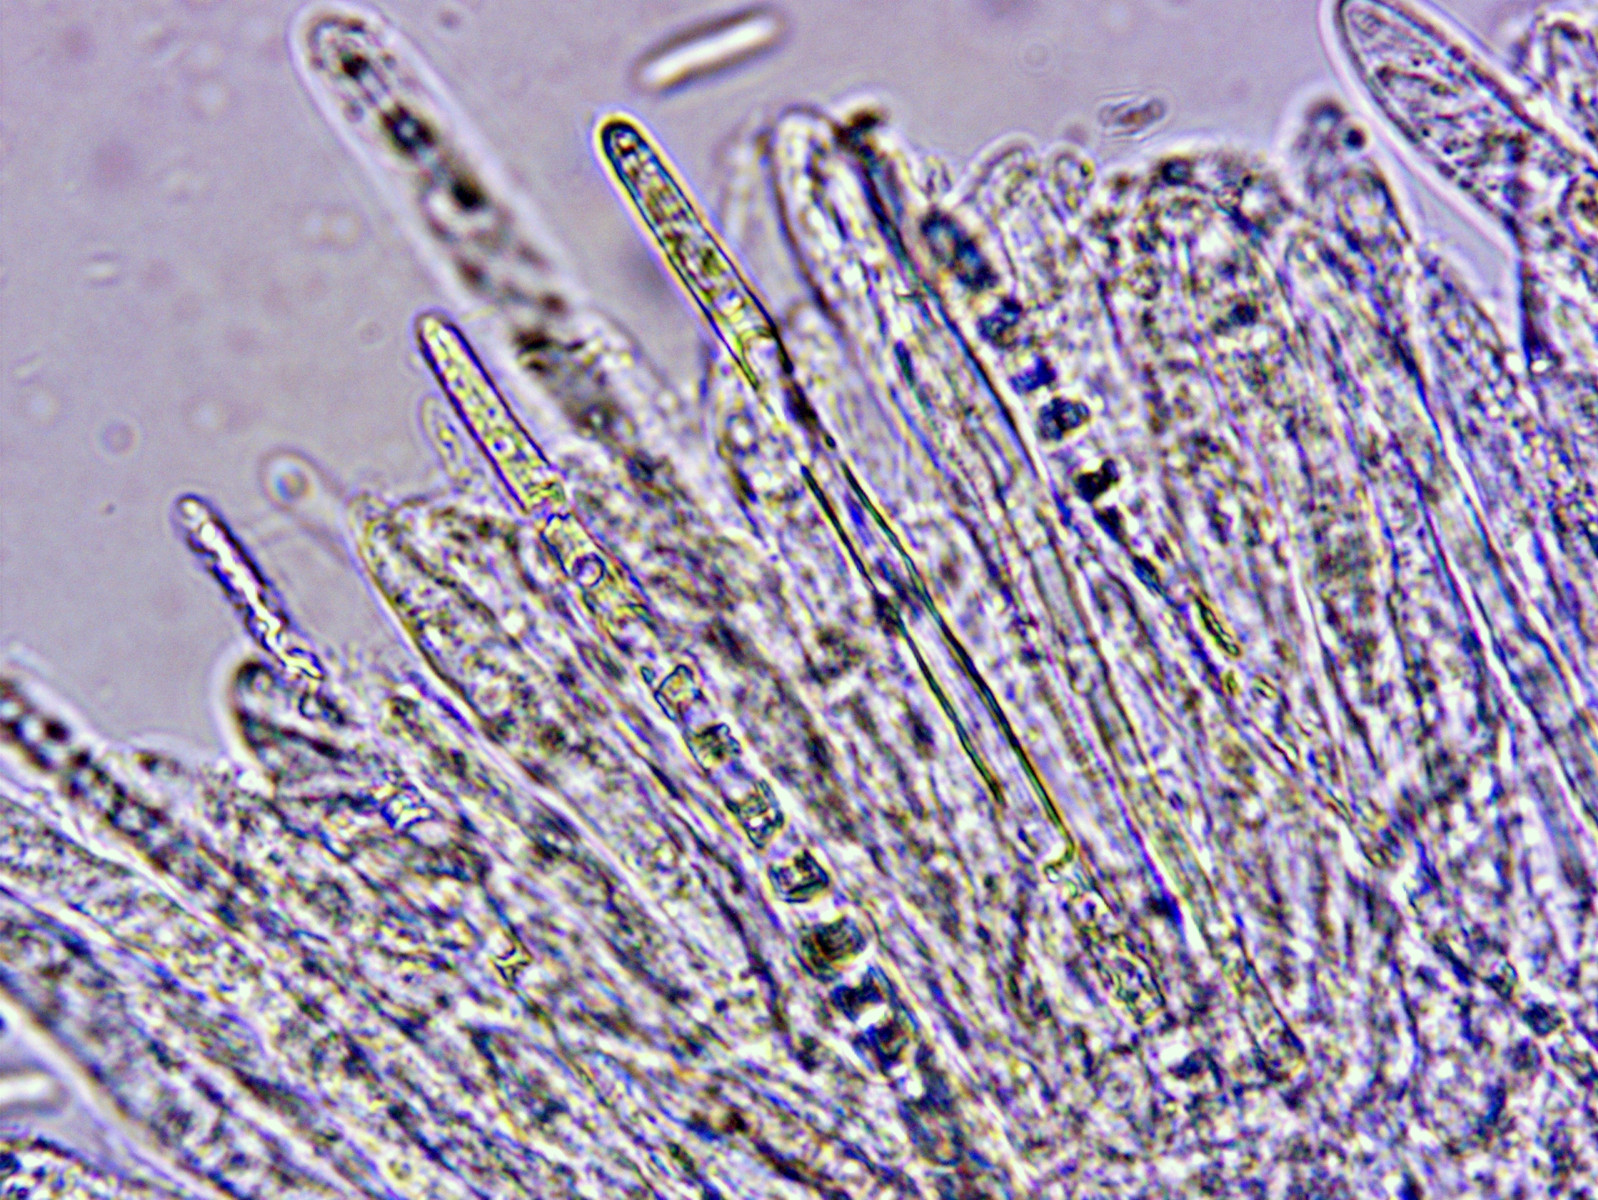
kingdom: Fungi
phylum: Ascomycota
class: Leotiomycetes
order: Helotiales
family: Mollisiaceae
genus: Mollisia
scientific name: Mollisia cinerea
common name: almindelig gråskive
